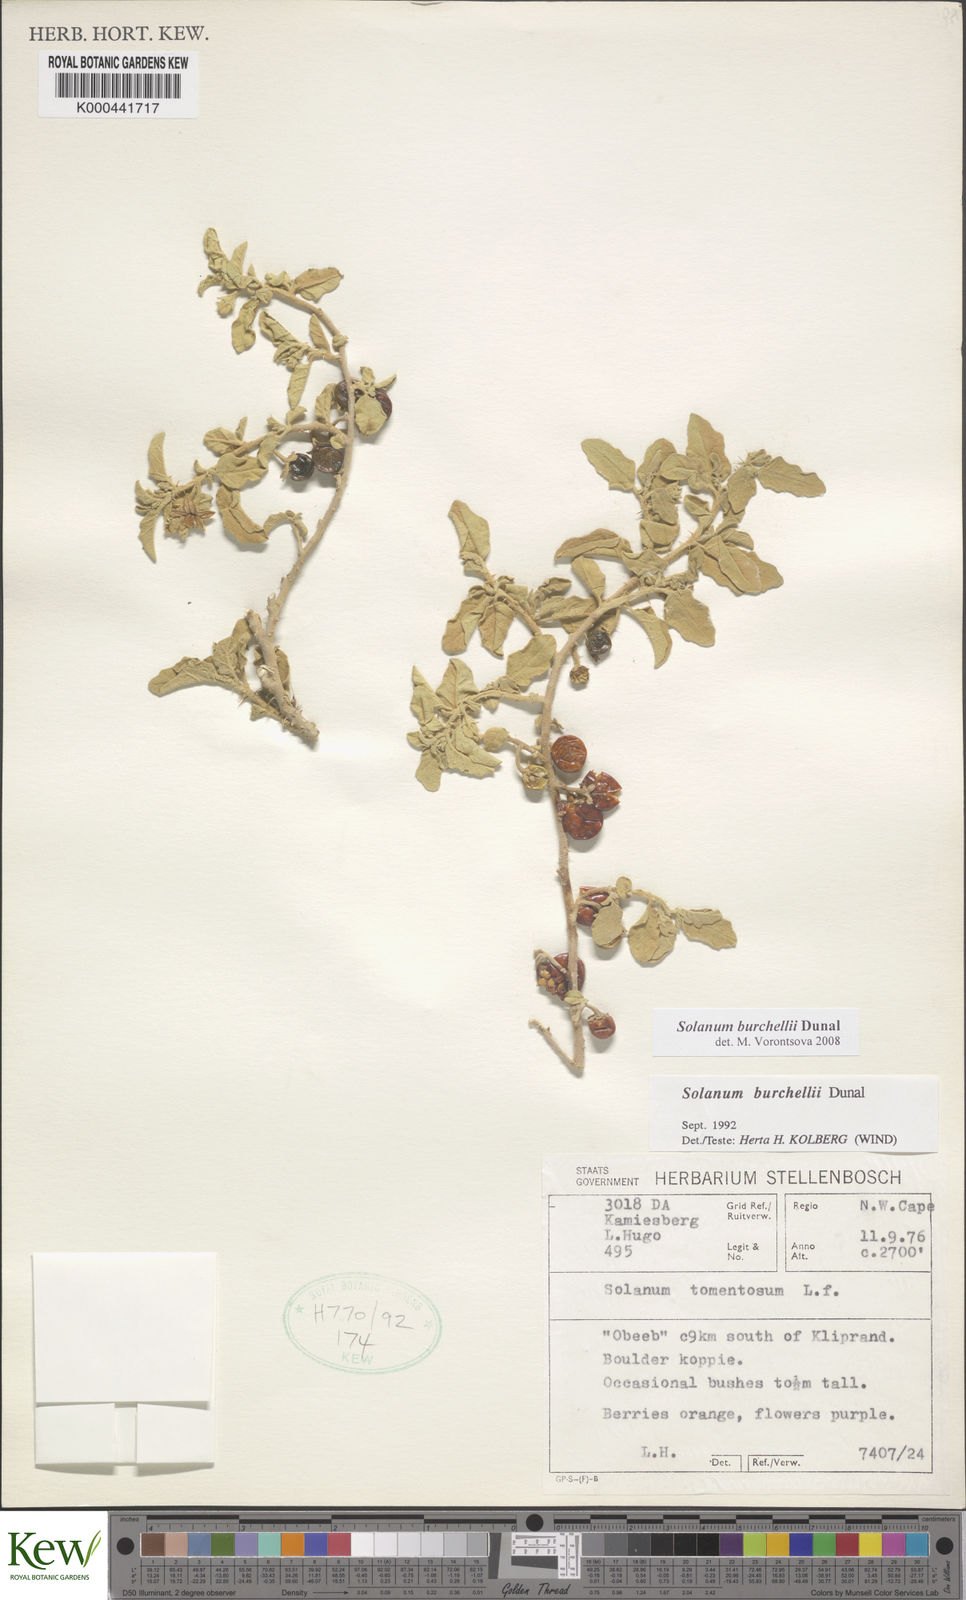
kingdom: Plantae
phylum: Tracheophyta
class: Magnoliopsida
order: Solanales
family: Solanaceae
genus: Solanum
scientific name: Solanum burchellii
